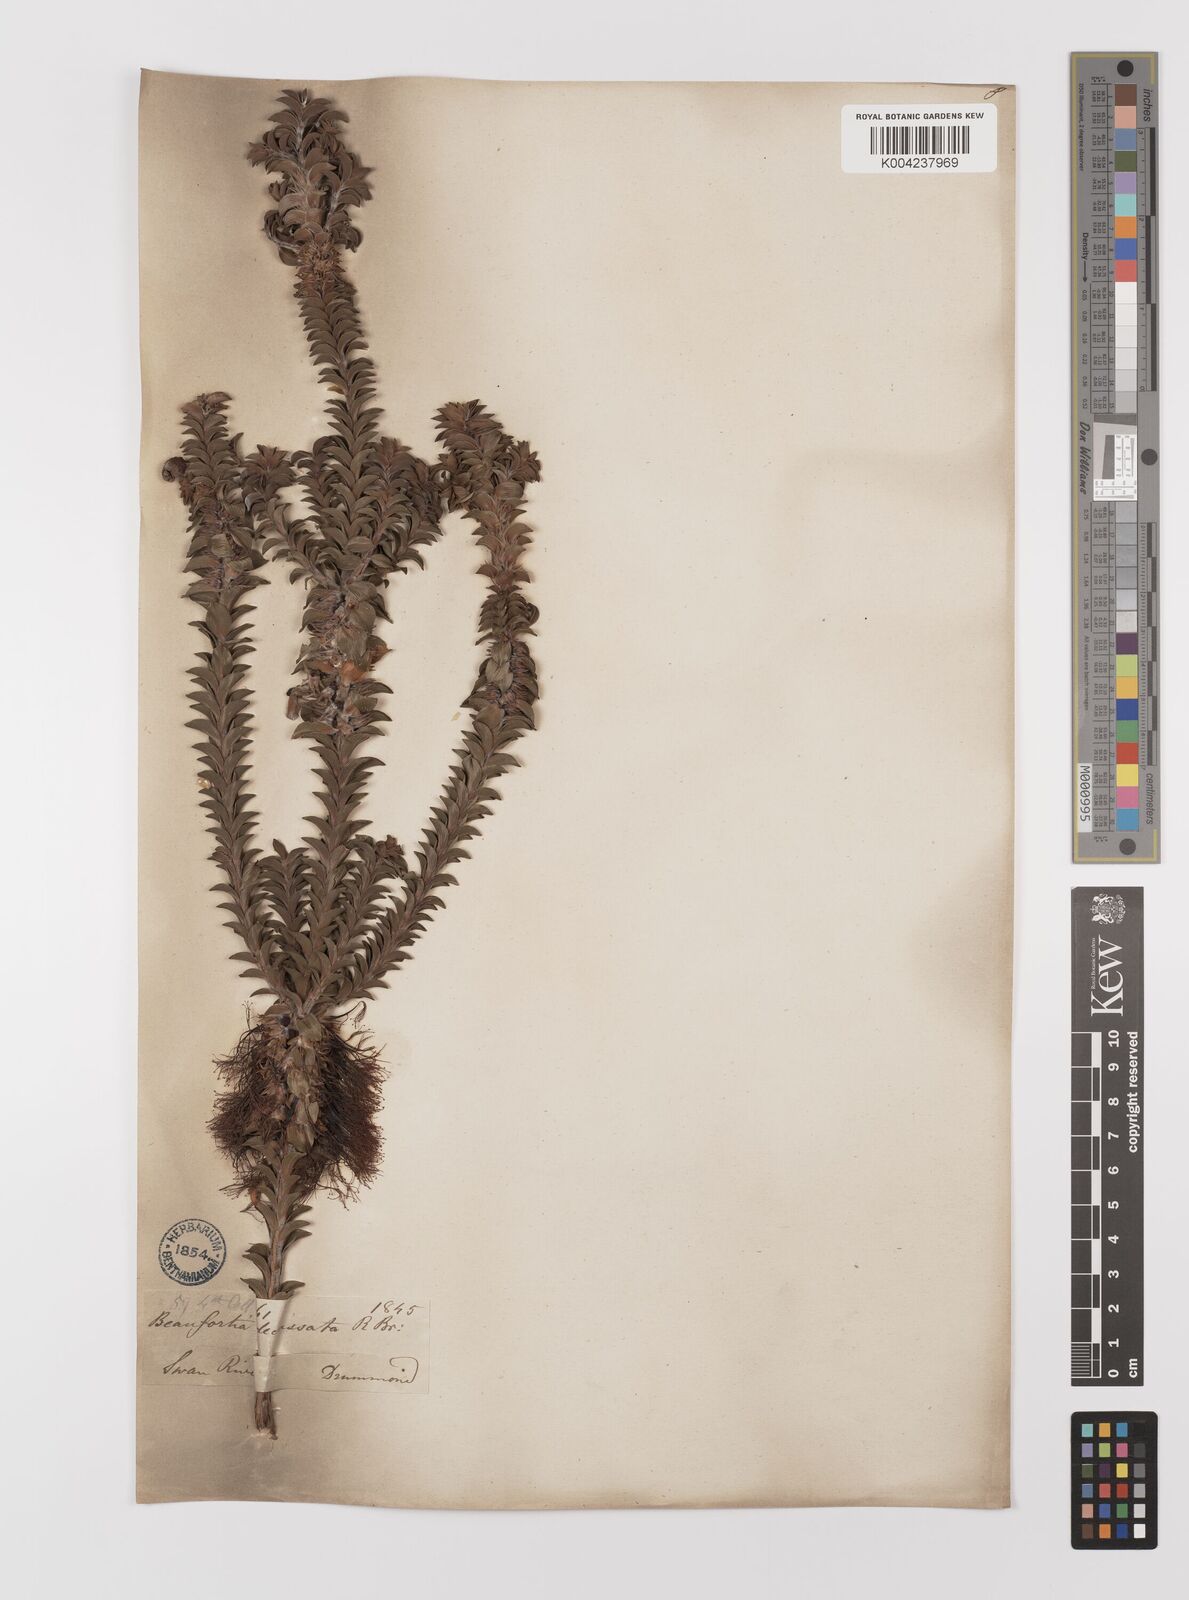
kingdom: Plantae
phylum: Tracheophyta
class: Magnoliopsida
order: Myrtales
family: Myrtaceae
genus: Melaleuca
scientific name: Melaleuca transversa
